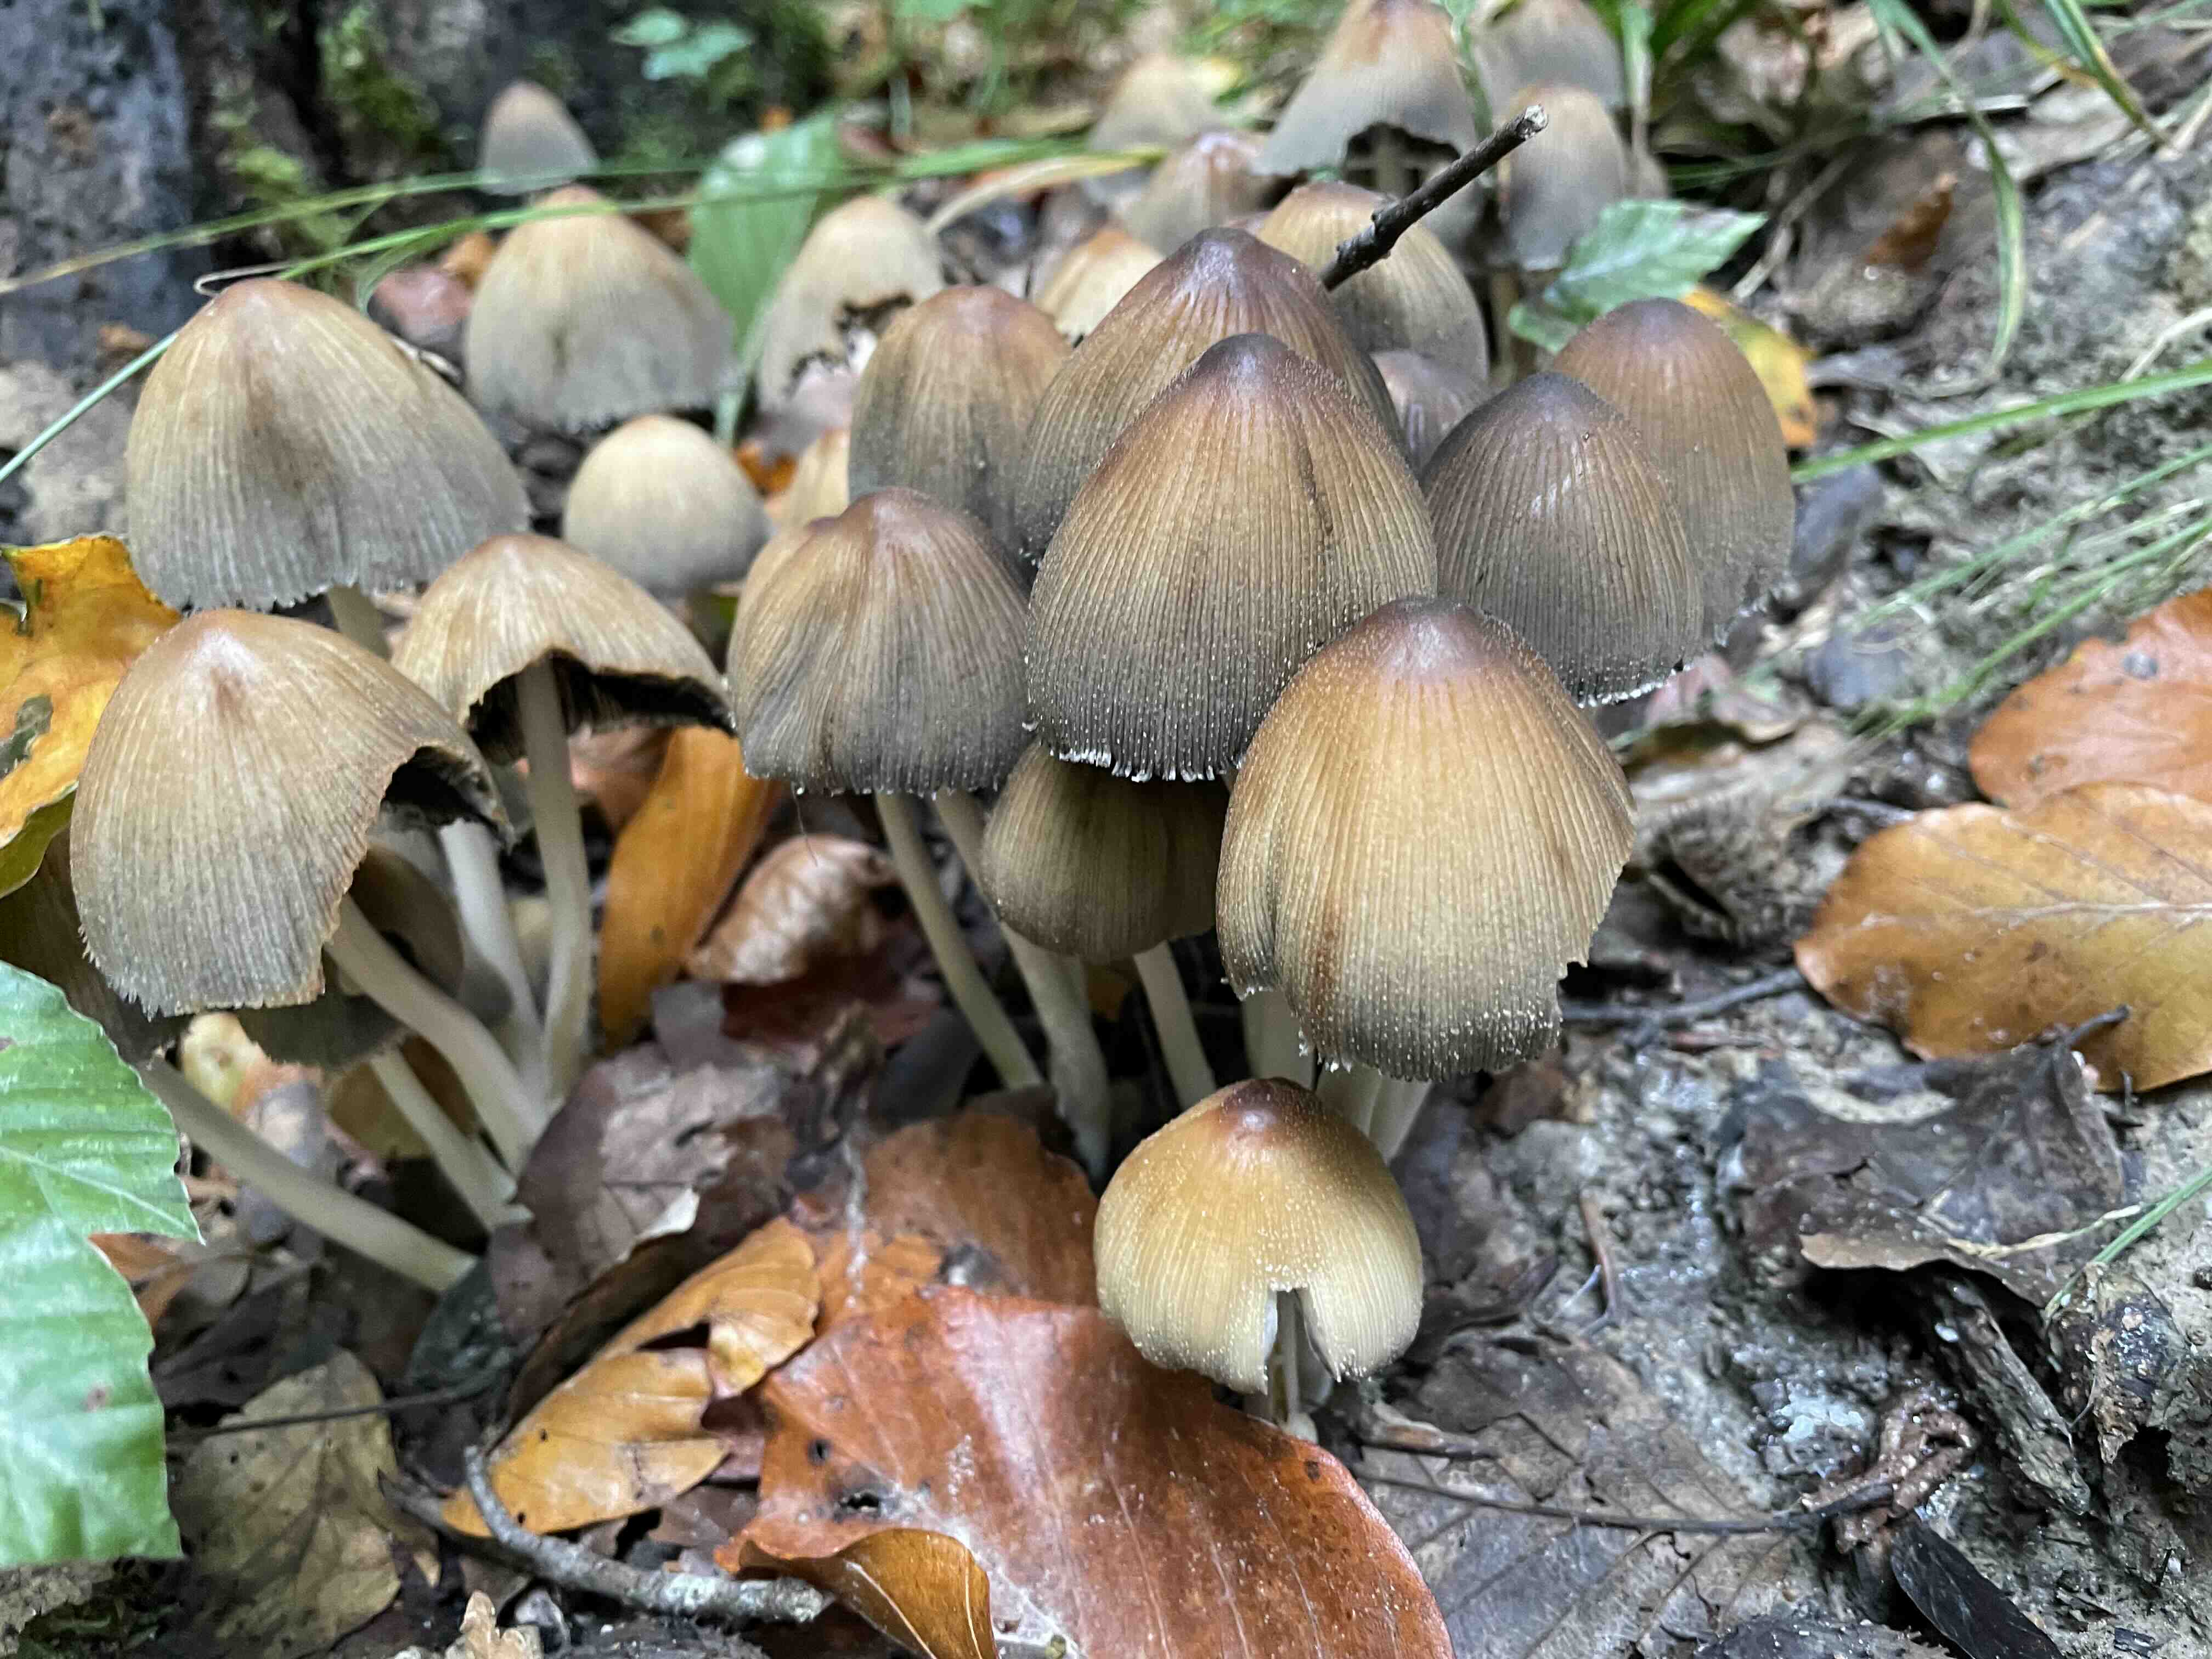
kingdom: Fungi
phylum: Basidiomycota
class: Agaricomycetes
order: Agaricales
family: Psathyrellaceae
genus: Coprinellus
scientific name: Coprinellus micaceus
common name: glimmer-blækhat
